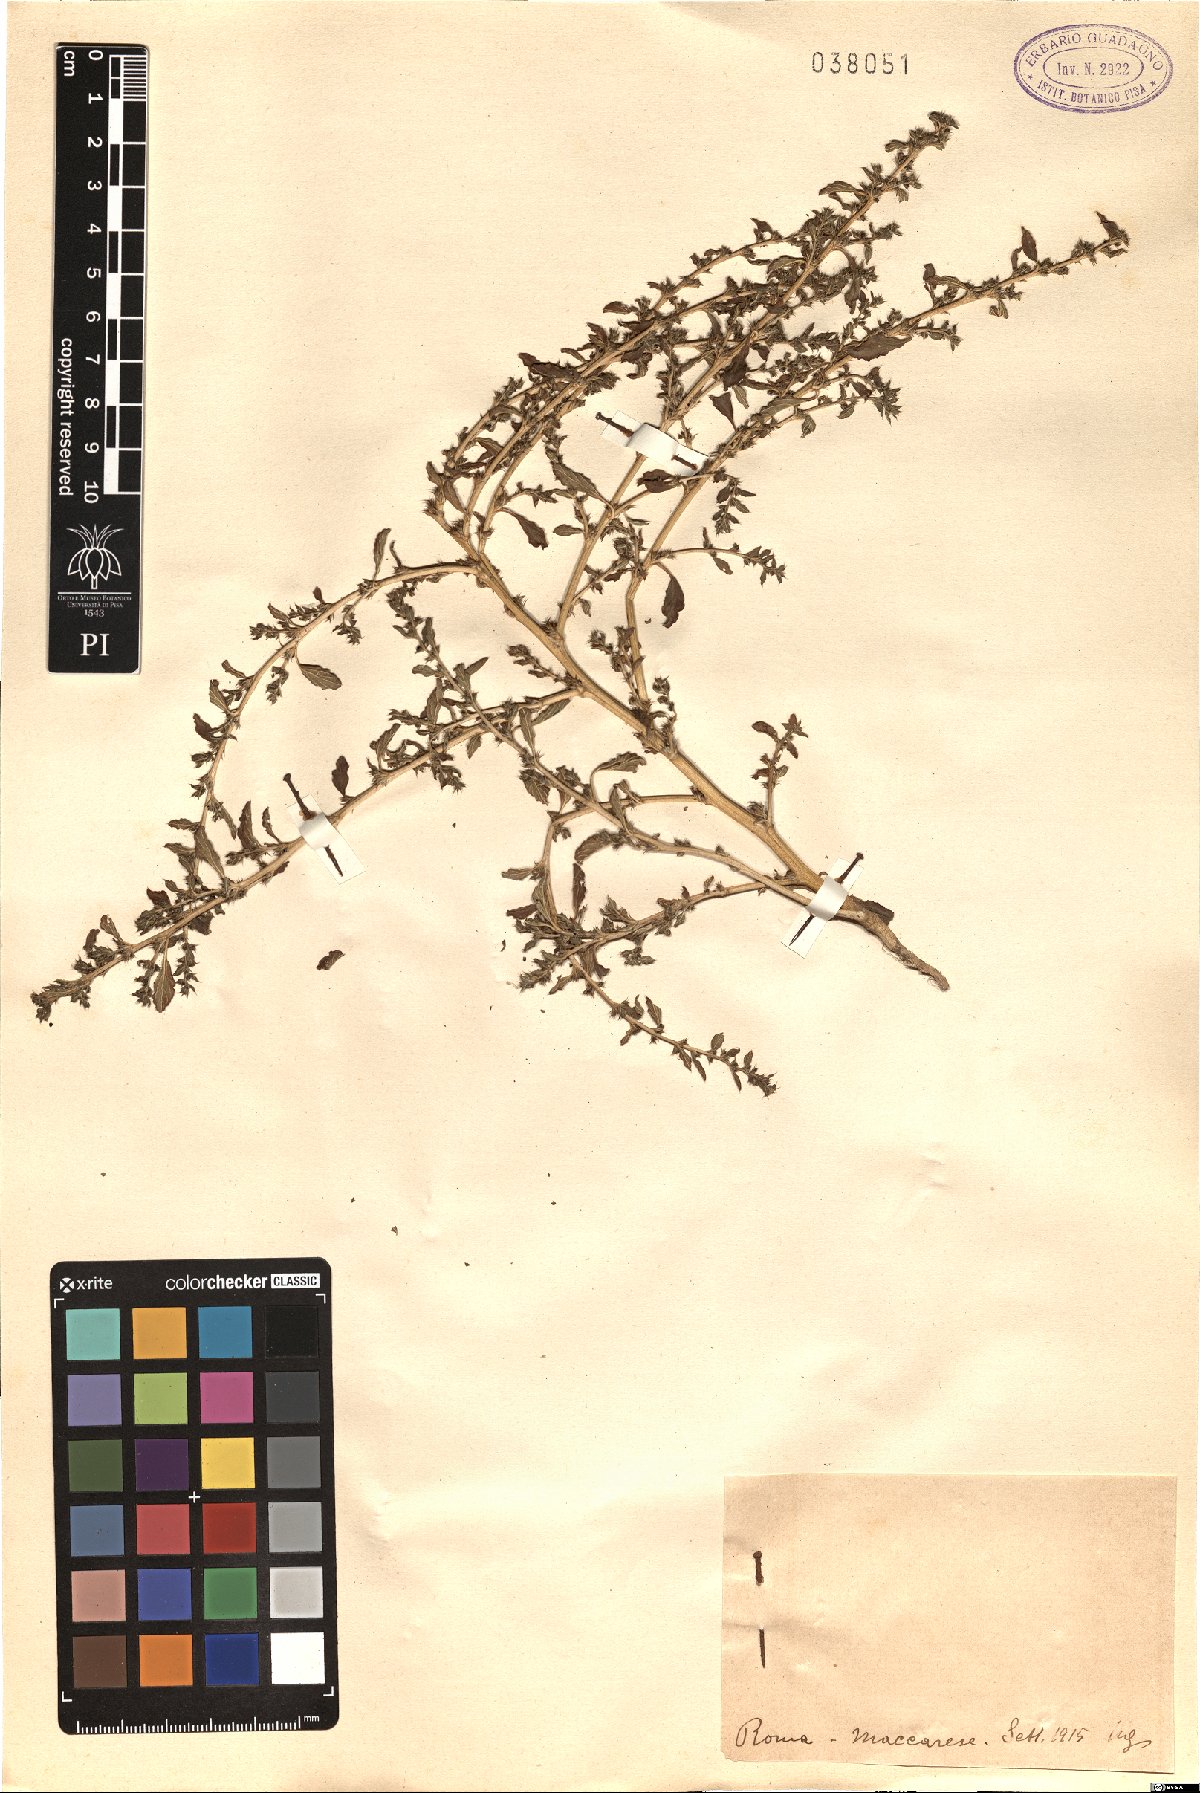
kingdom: Plantae
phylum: Tracheophyta
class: Magnoliopsida
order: Caryophyllales
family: Amaranthaceae
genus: Amaranthus
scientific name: Amaranthus
